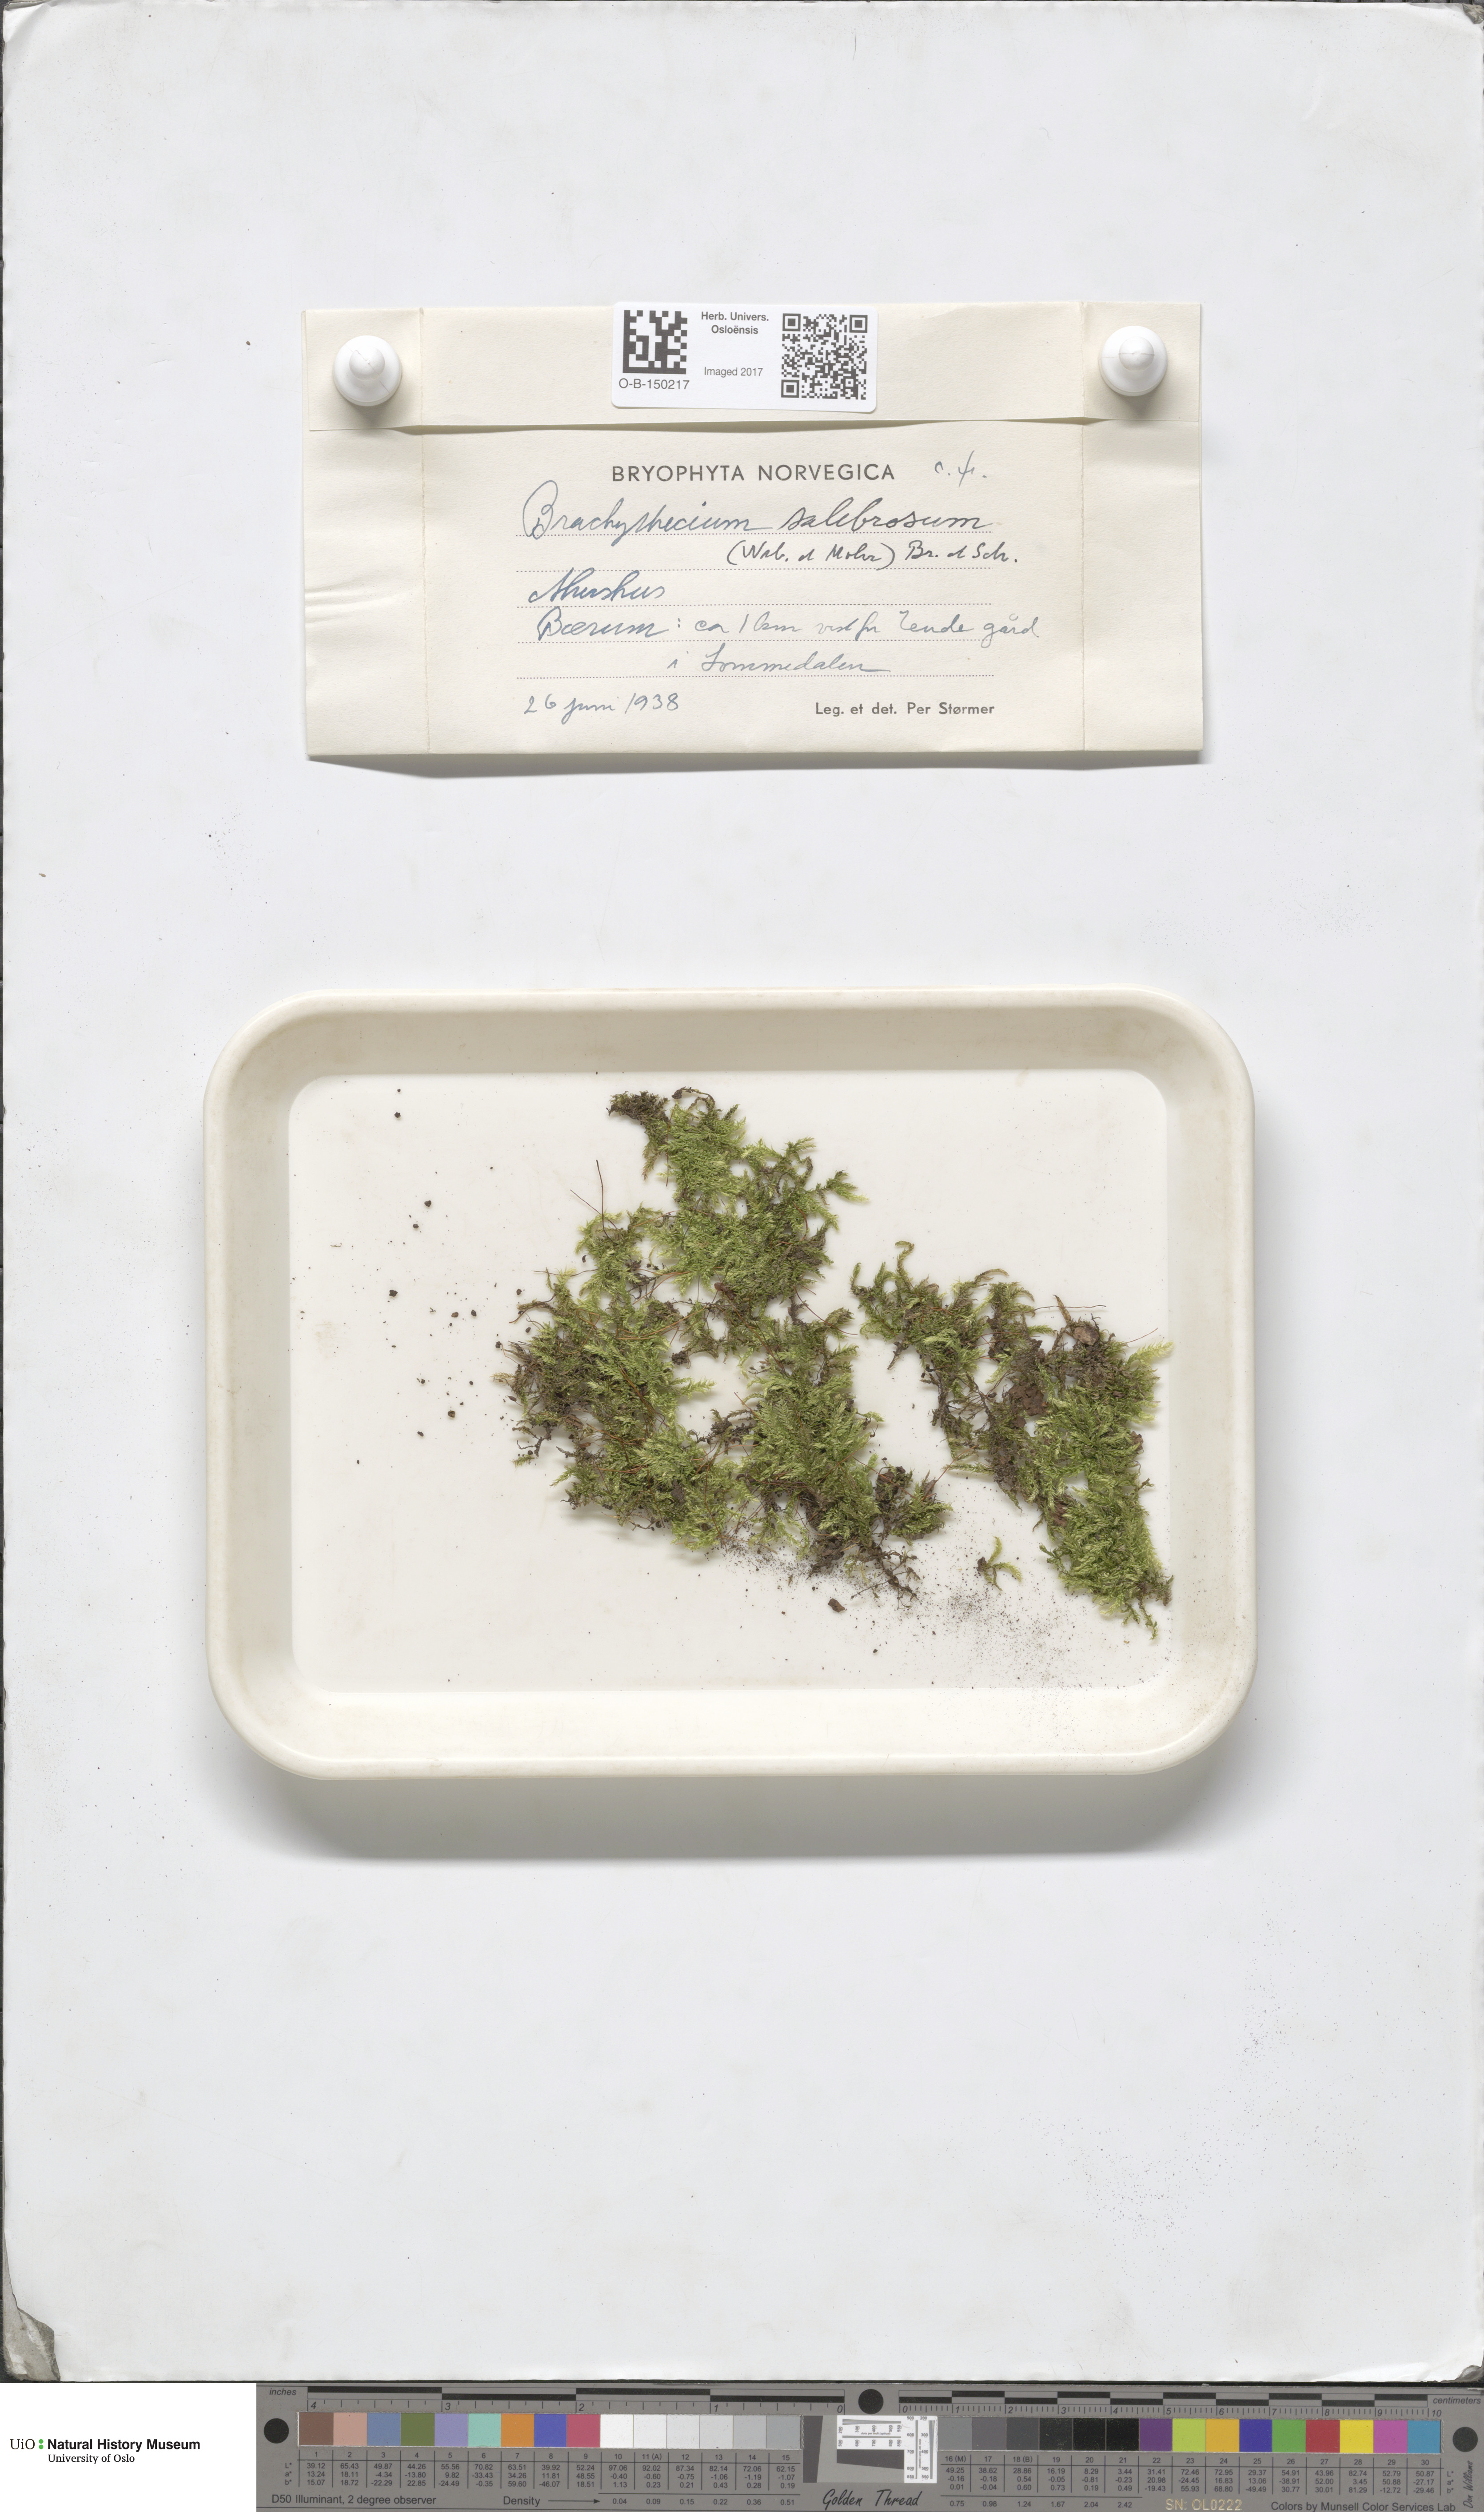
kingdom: Plantae
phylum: Bryophyta
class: Bryopsida
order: Hypnales
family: Brachytheciaceae
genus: Brachythecium
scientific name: Brachythecium salebrosum
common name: Smooth-stalk feather-moss
